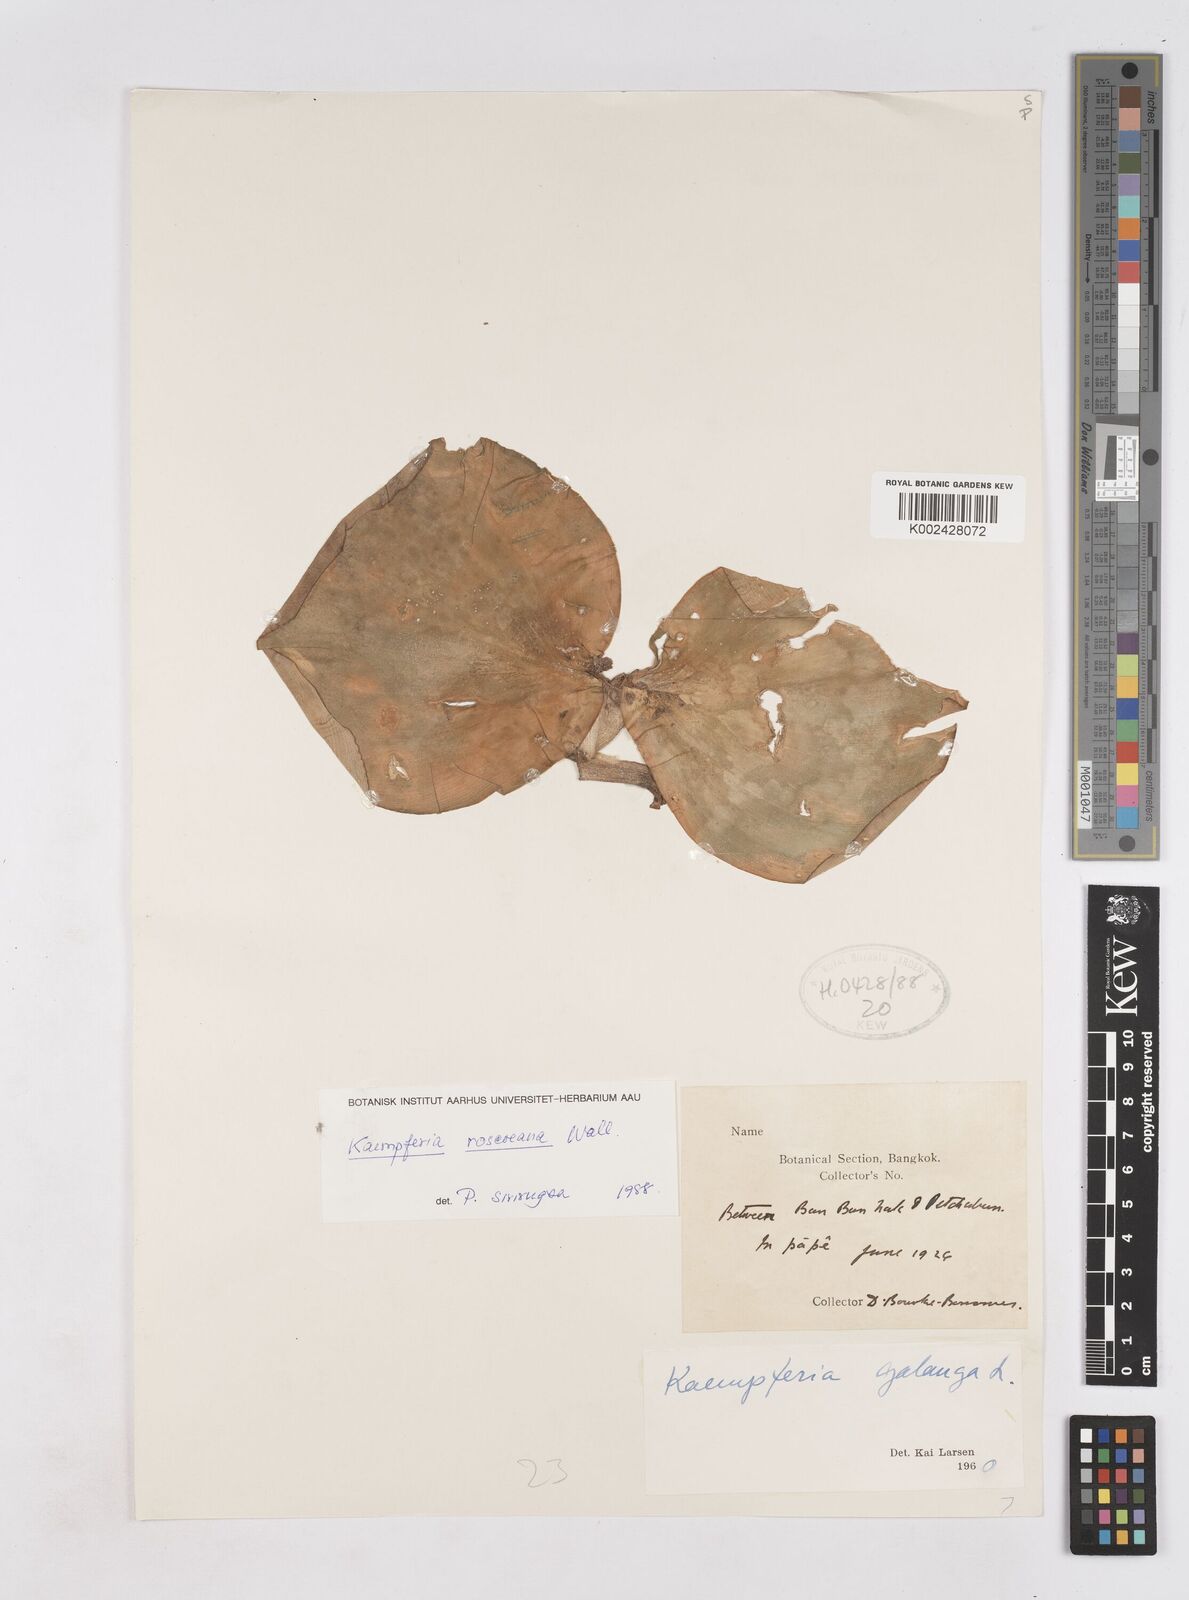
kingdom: Plantae
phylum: Tracheophyta
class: Liliopsida
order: Zingiberales
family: Zingiberaceae
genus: Kaempferia
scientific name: Kaempferia roscoeana
